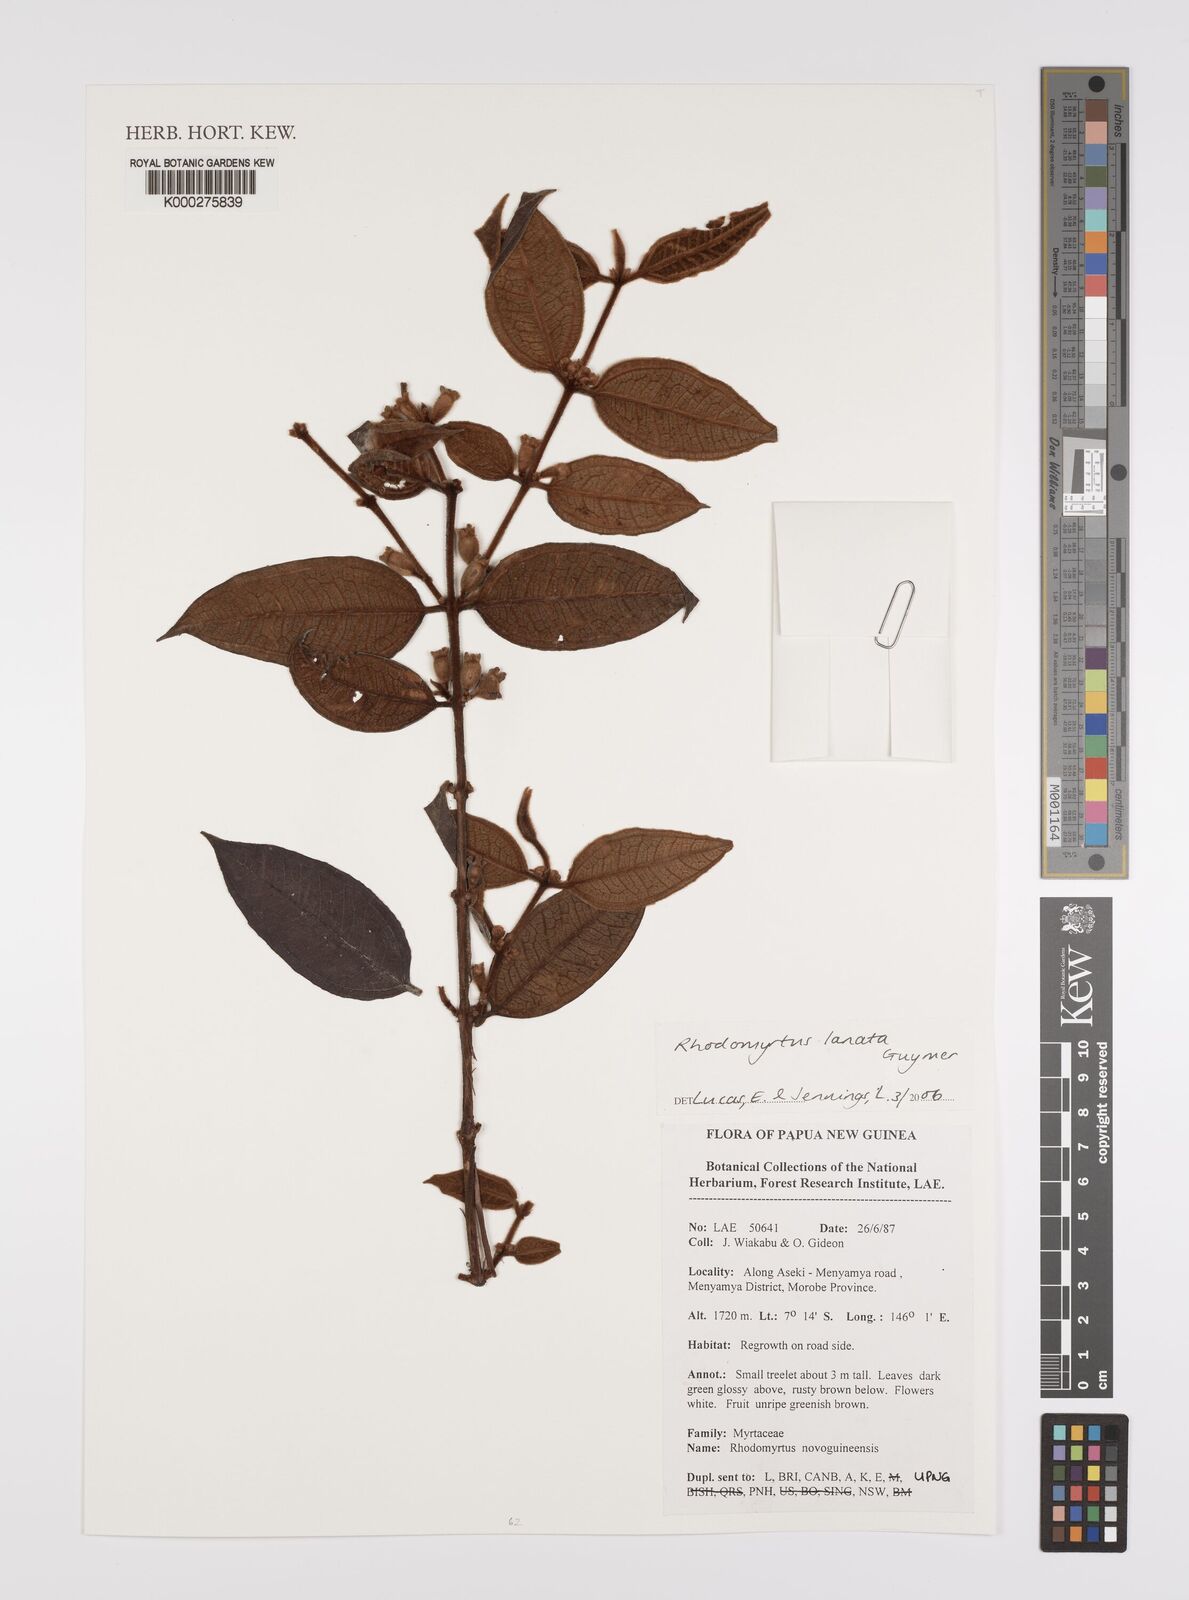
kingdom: Plantae
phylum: Tracheophyta
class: Magnoliopsida
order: Myrtales
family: Myrtaceae
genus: Rhodomyrtus
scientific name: Rhodomyrtus lanata
